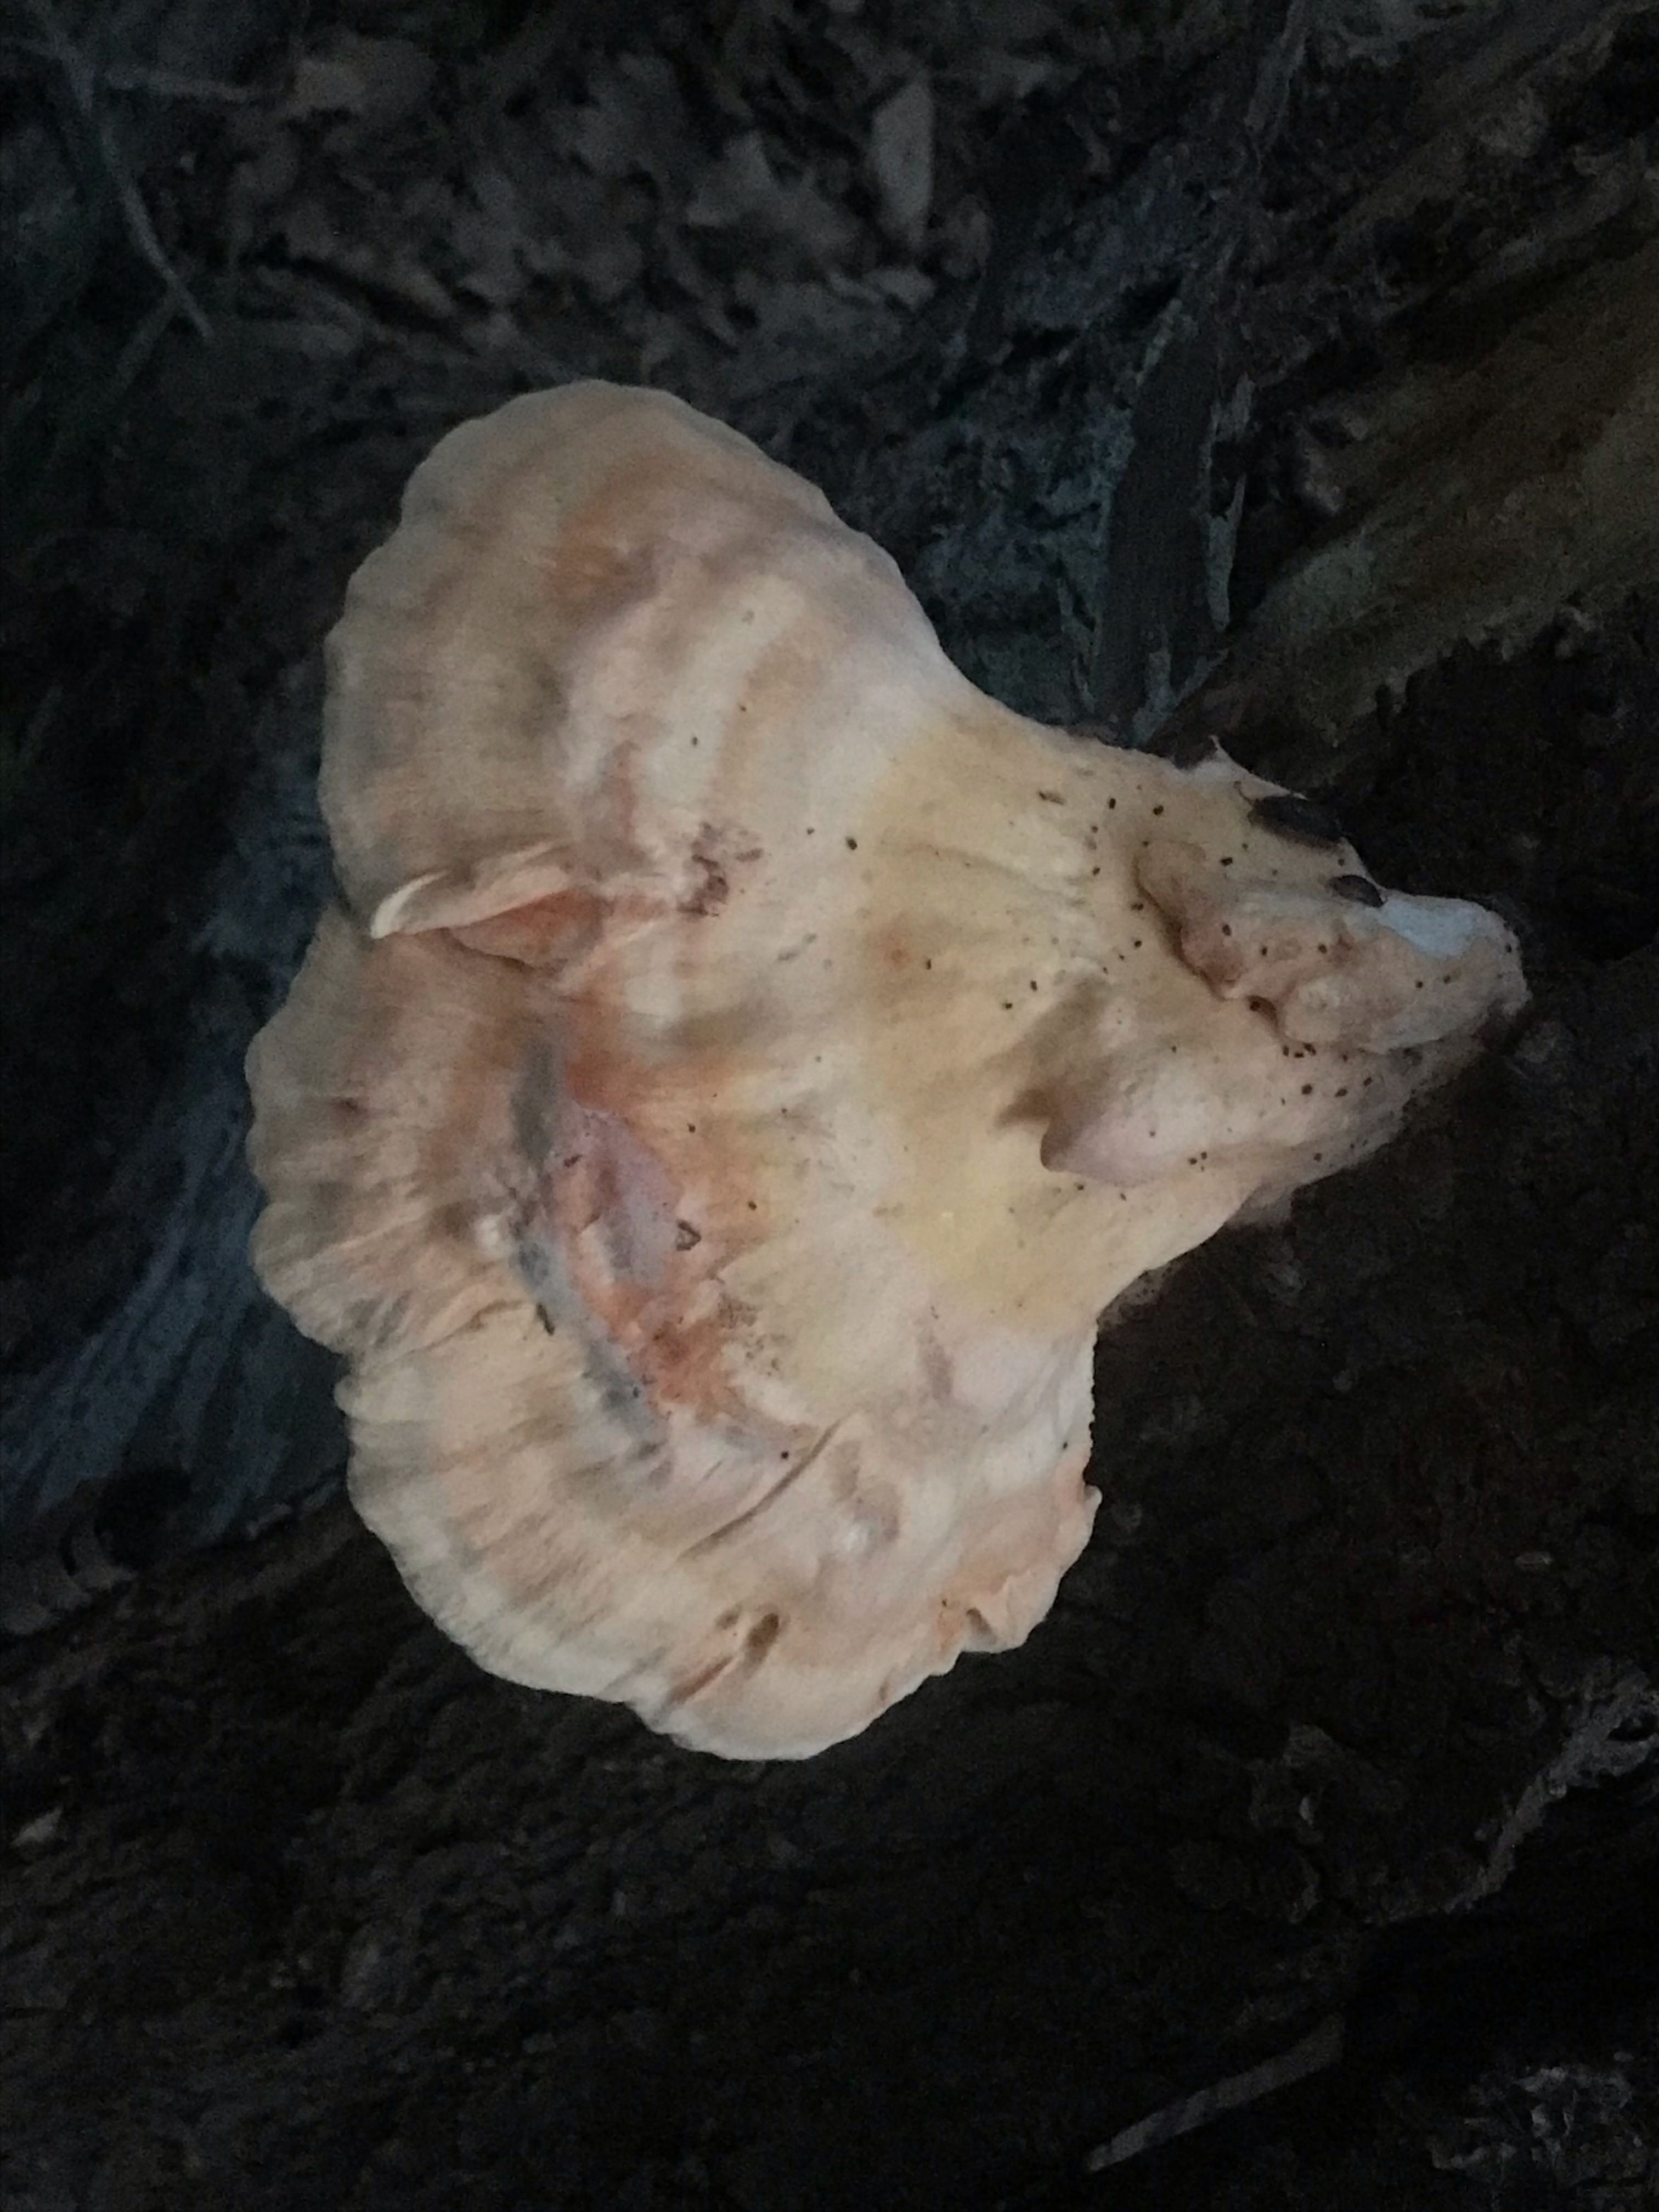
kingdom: Fungi
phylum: Basidiomycota
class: Agaricomycetes
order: Polyporales
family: Laetiporaceae
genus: Laetiporus
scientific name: Laetiporus sulphureus
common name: svovlporesvamp
